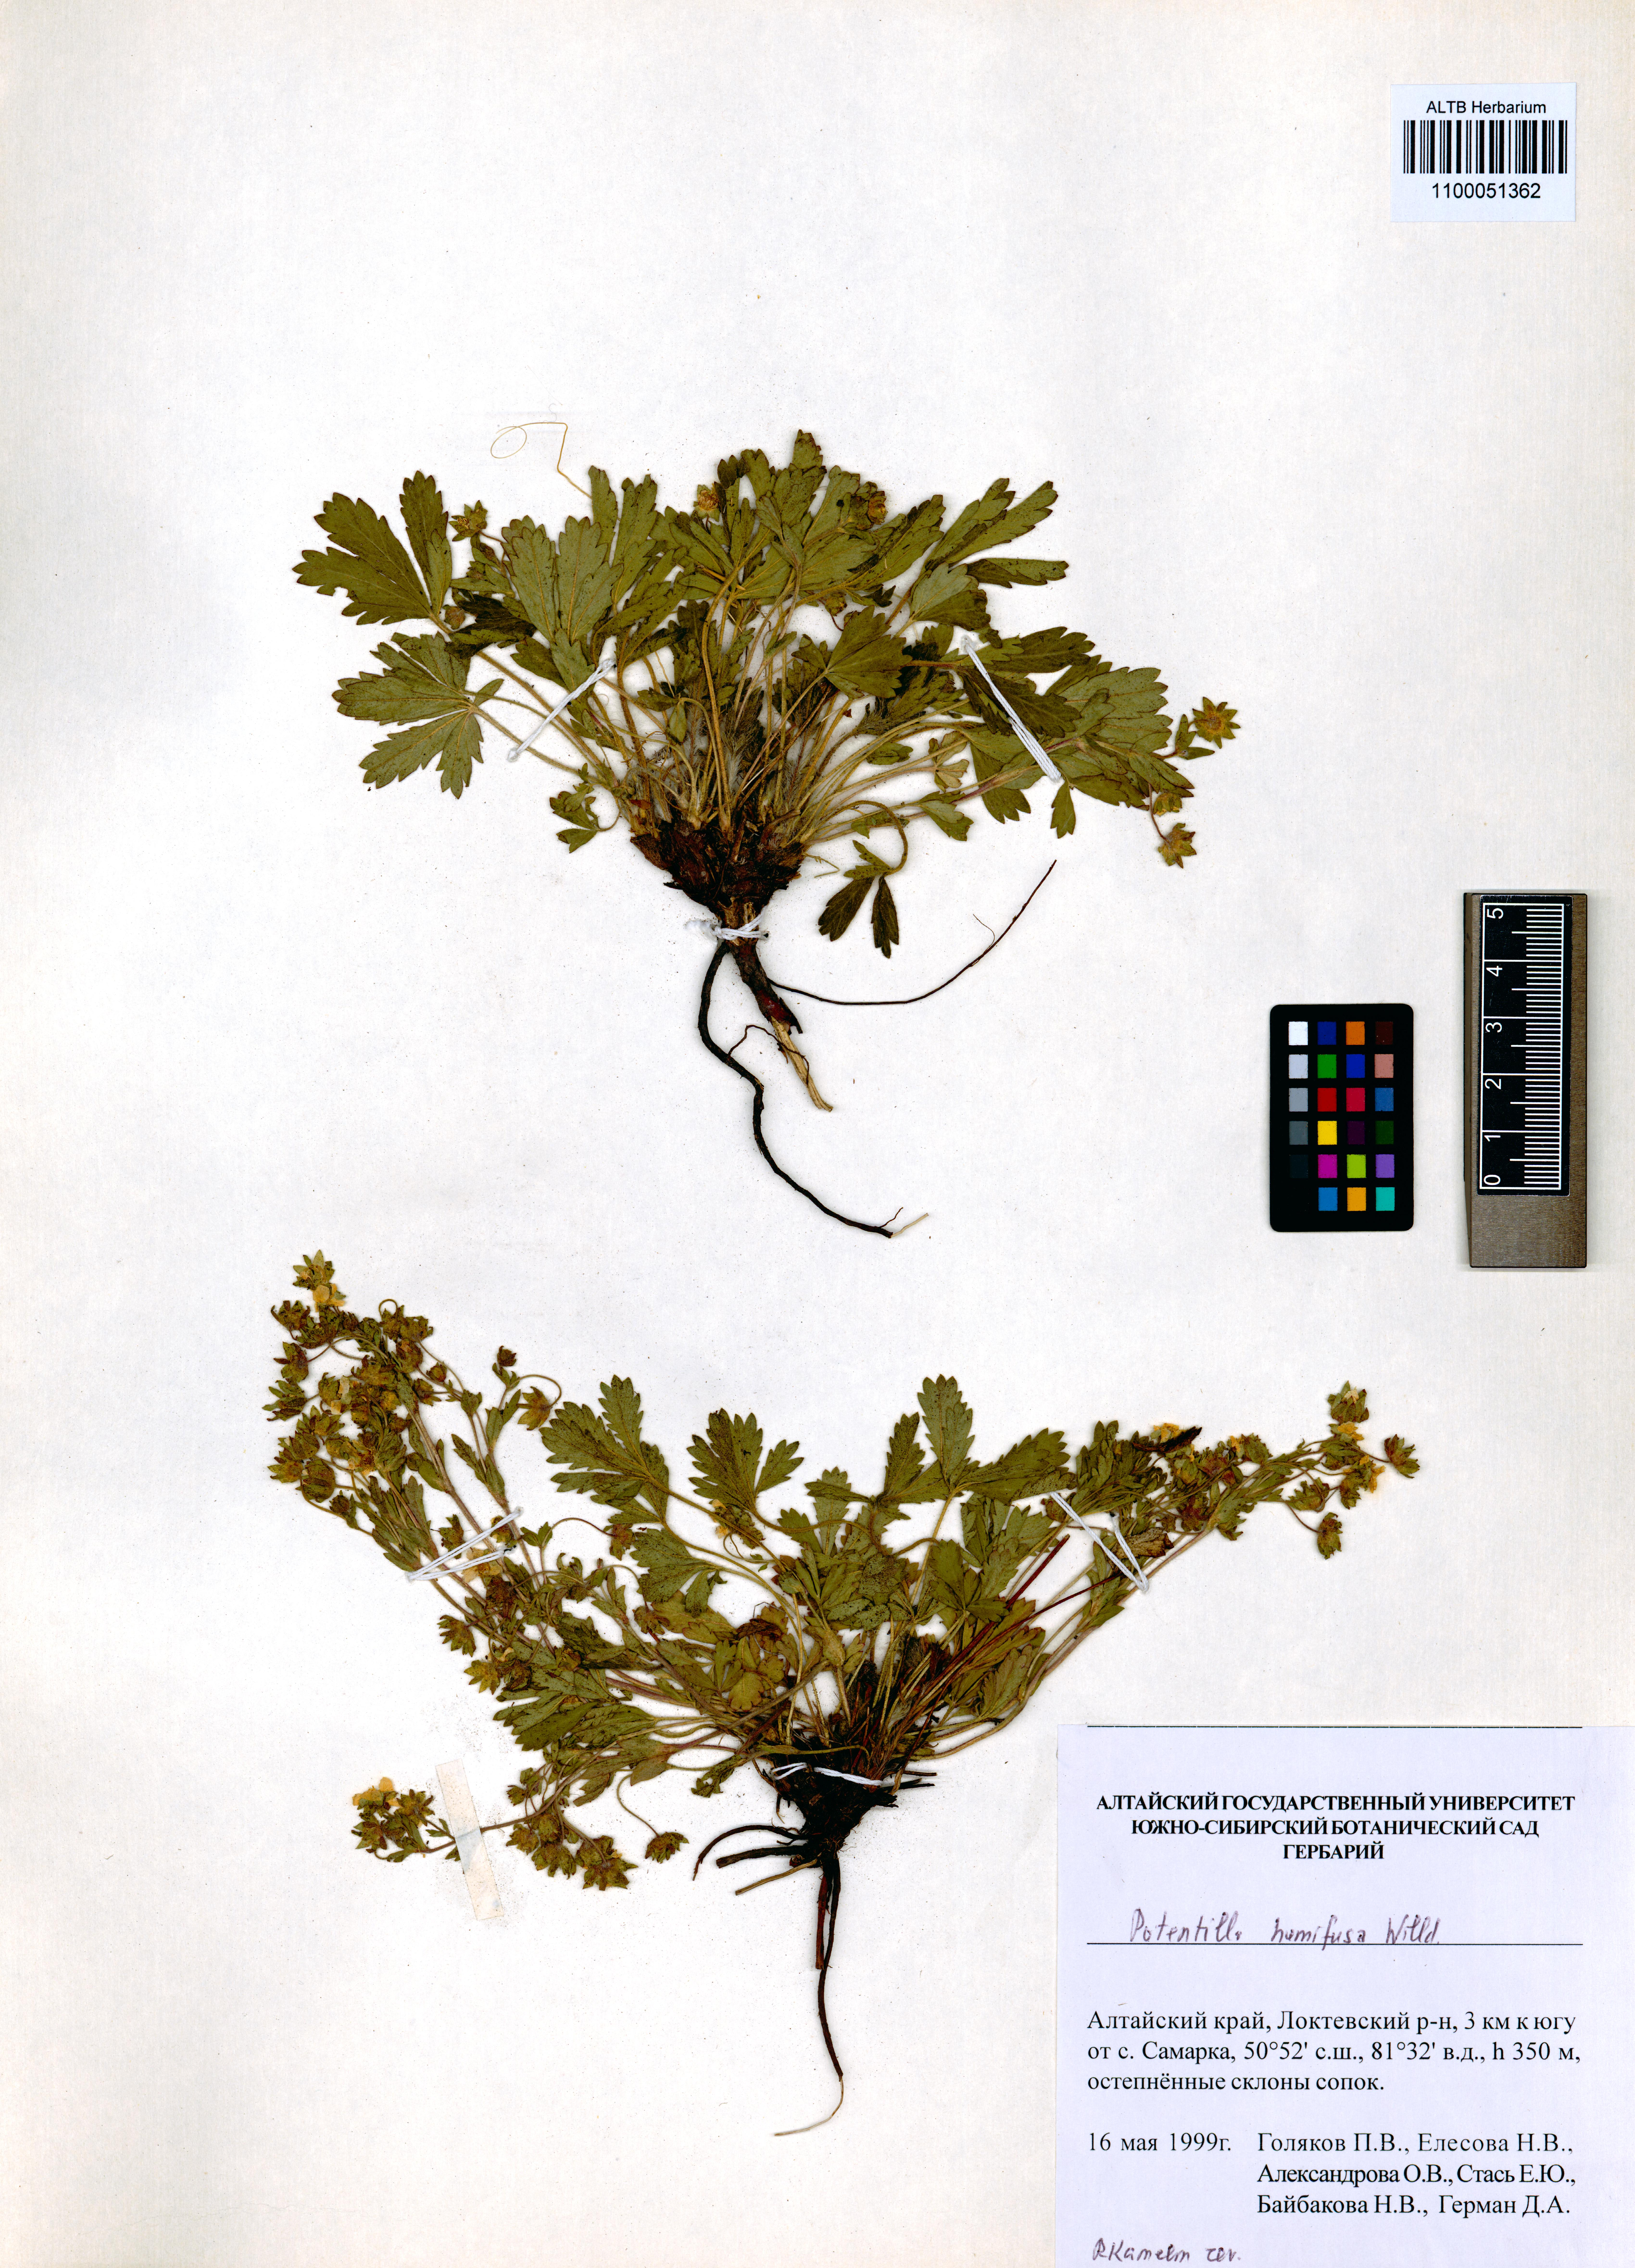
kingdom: Plantae
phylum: Tracheophyta
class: Magnoliopsida
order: Rosales
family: Rosaceae
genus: Potentilla
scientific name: Potentilla humifusa
